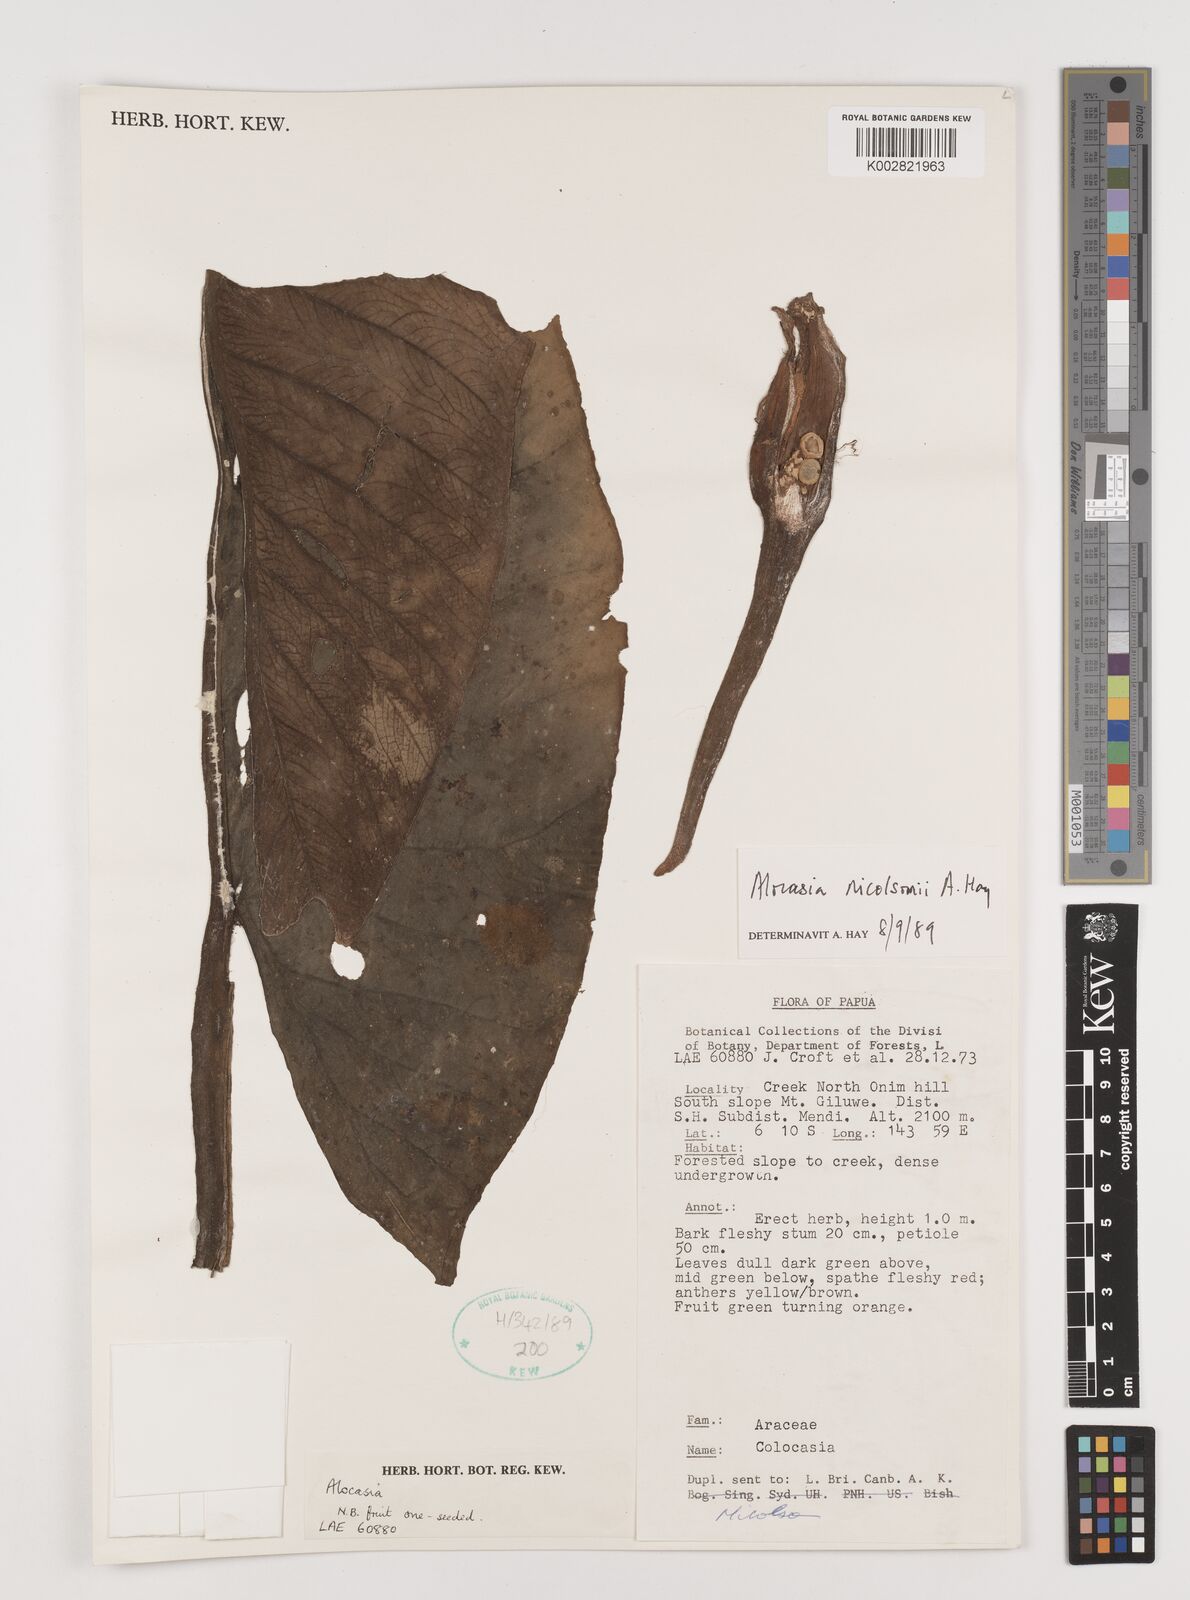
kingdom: Plantae
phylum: Tracheophyta
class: Liliopsida
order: Alismatales
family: Araceae
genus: Alocasia
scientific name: Alocasia nicolsonii
